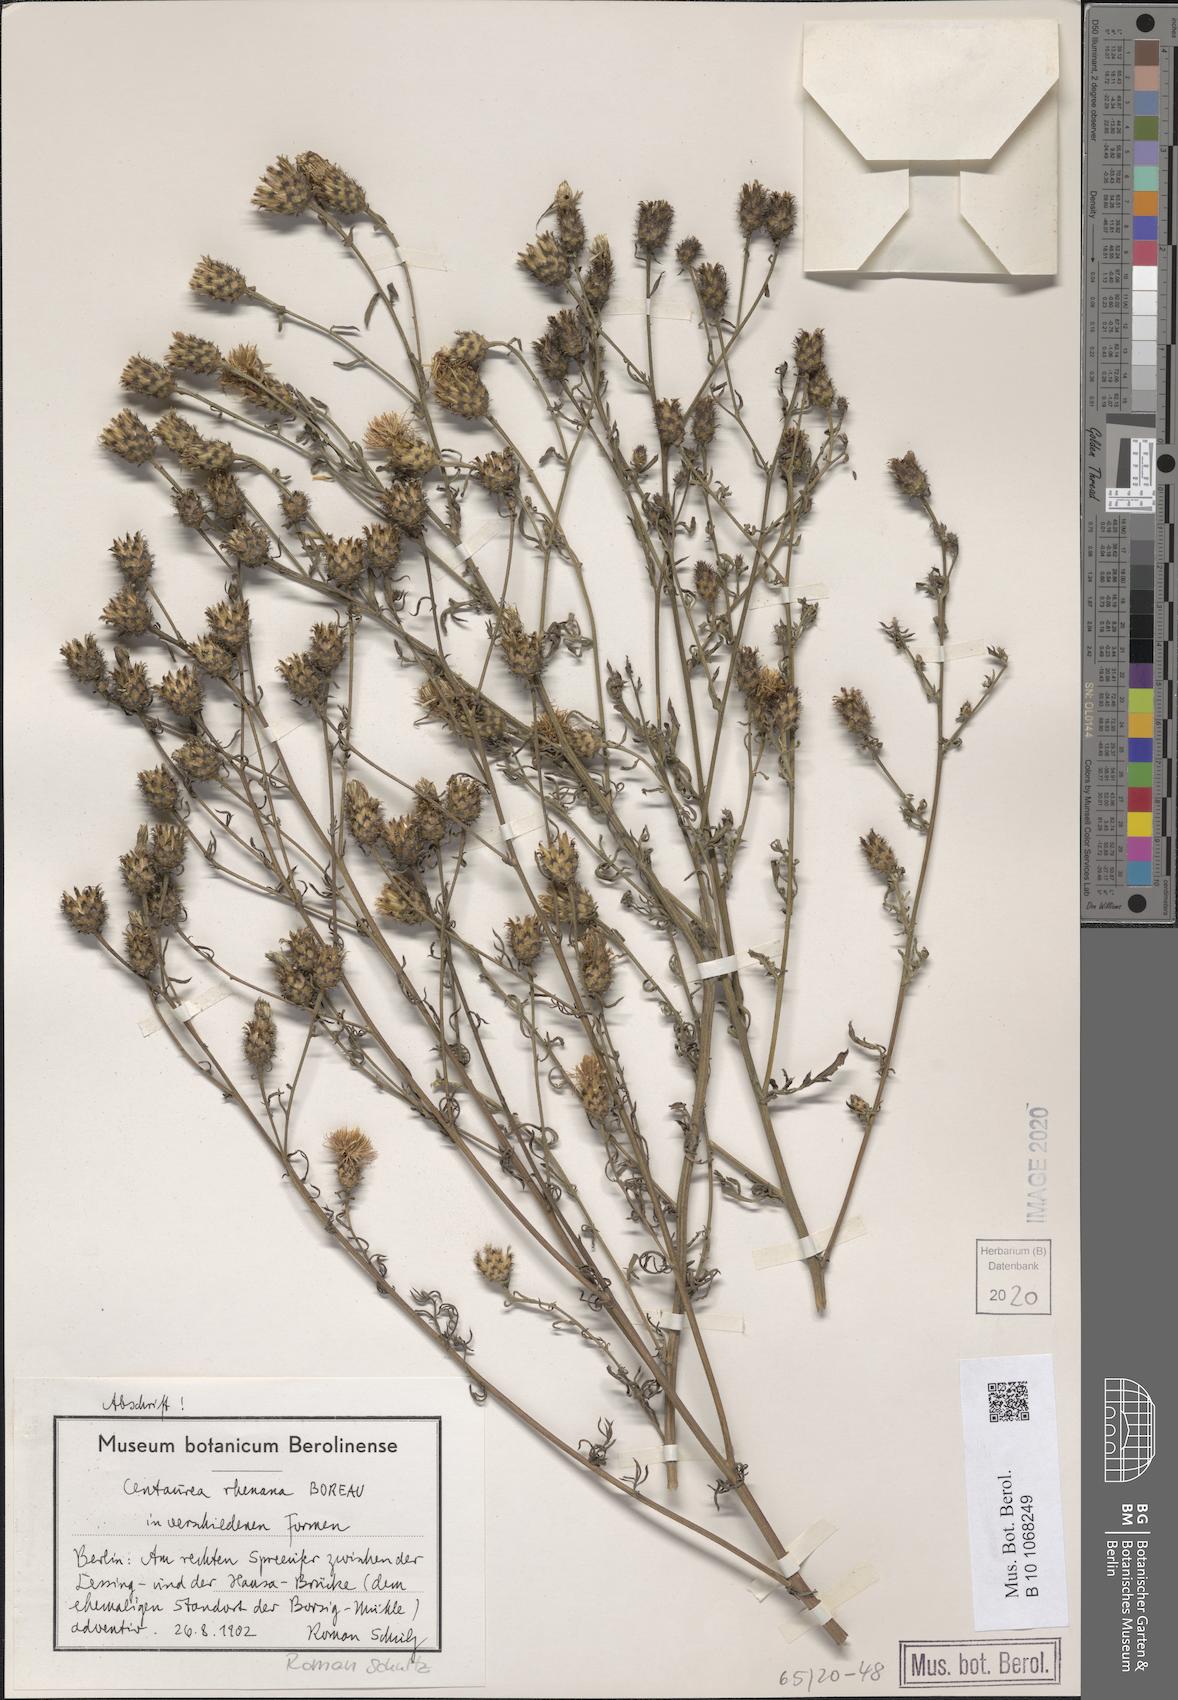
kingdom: Plantae
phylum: Tracheophyta
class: Magnoliopsida
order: Asterales
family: Asteraceae
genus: Centaurea
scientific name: Centaurea stoebe
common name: Spotted knapweed
